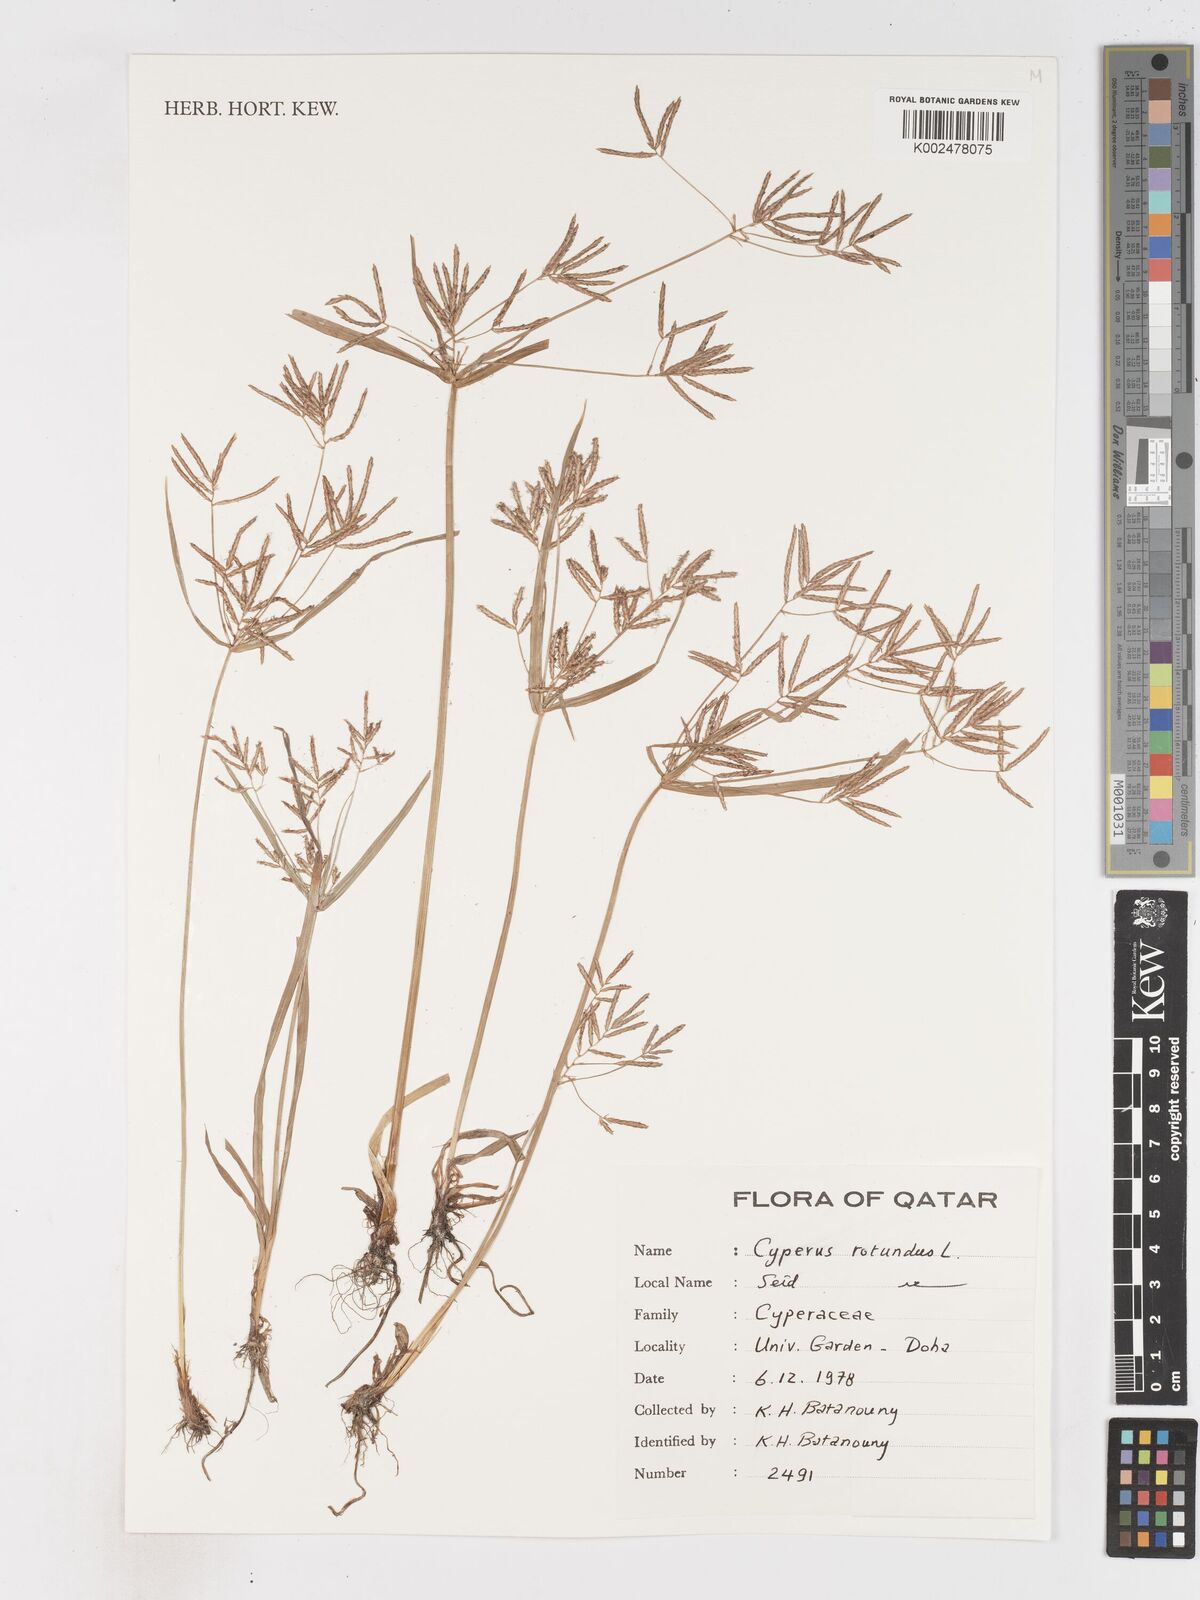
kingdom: Plantae
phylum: Tracheophyta
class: Liliopsida
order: Poales
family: Cyperaceae
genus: Cyperus
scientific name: Cyperus rotundus
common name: Nutgrass
